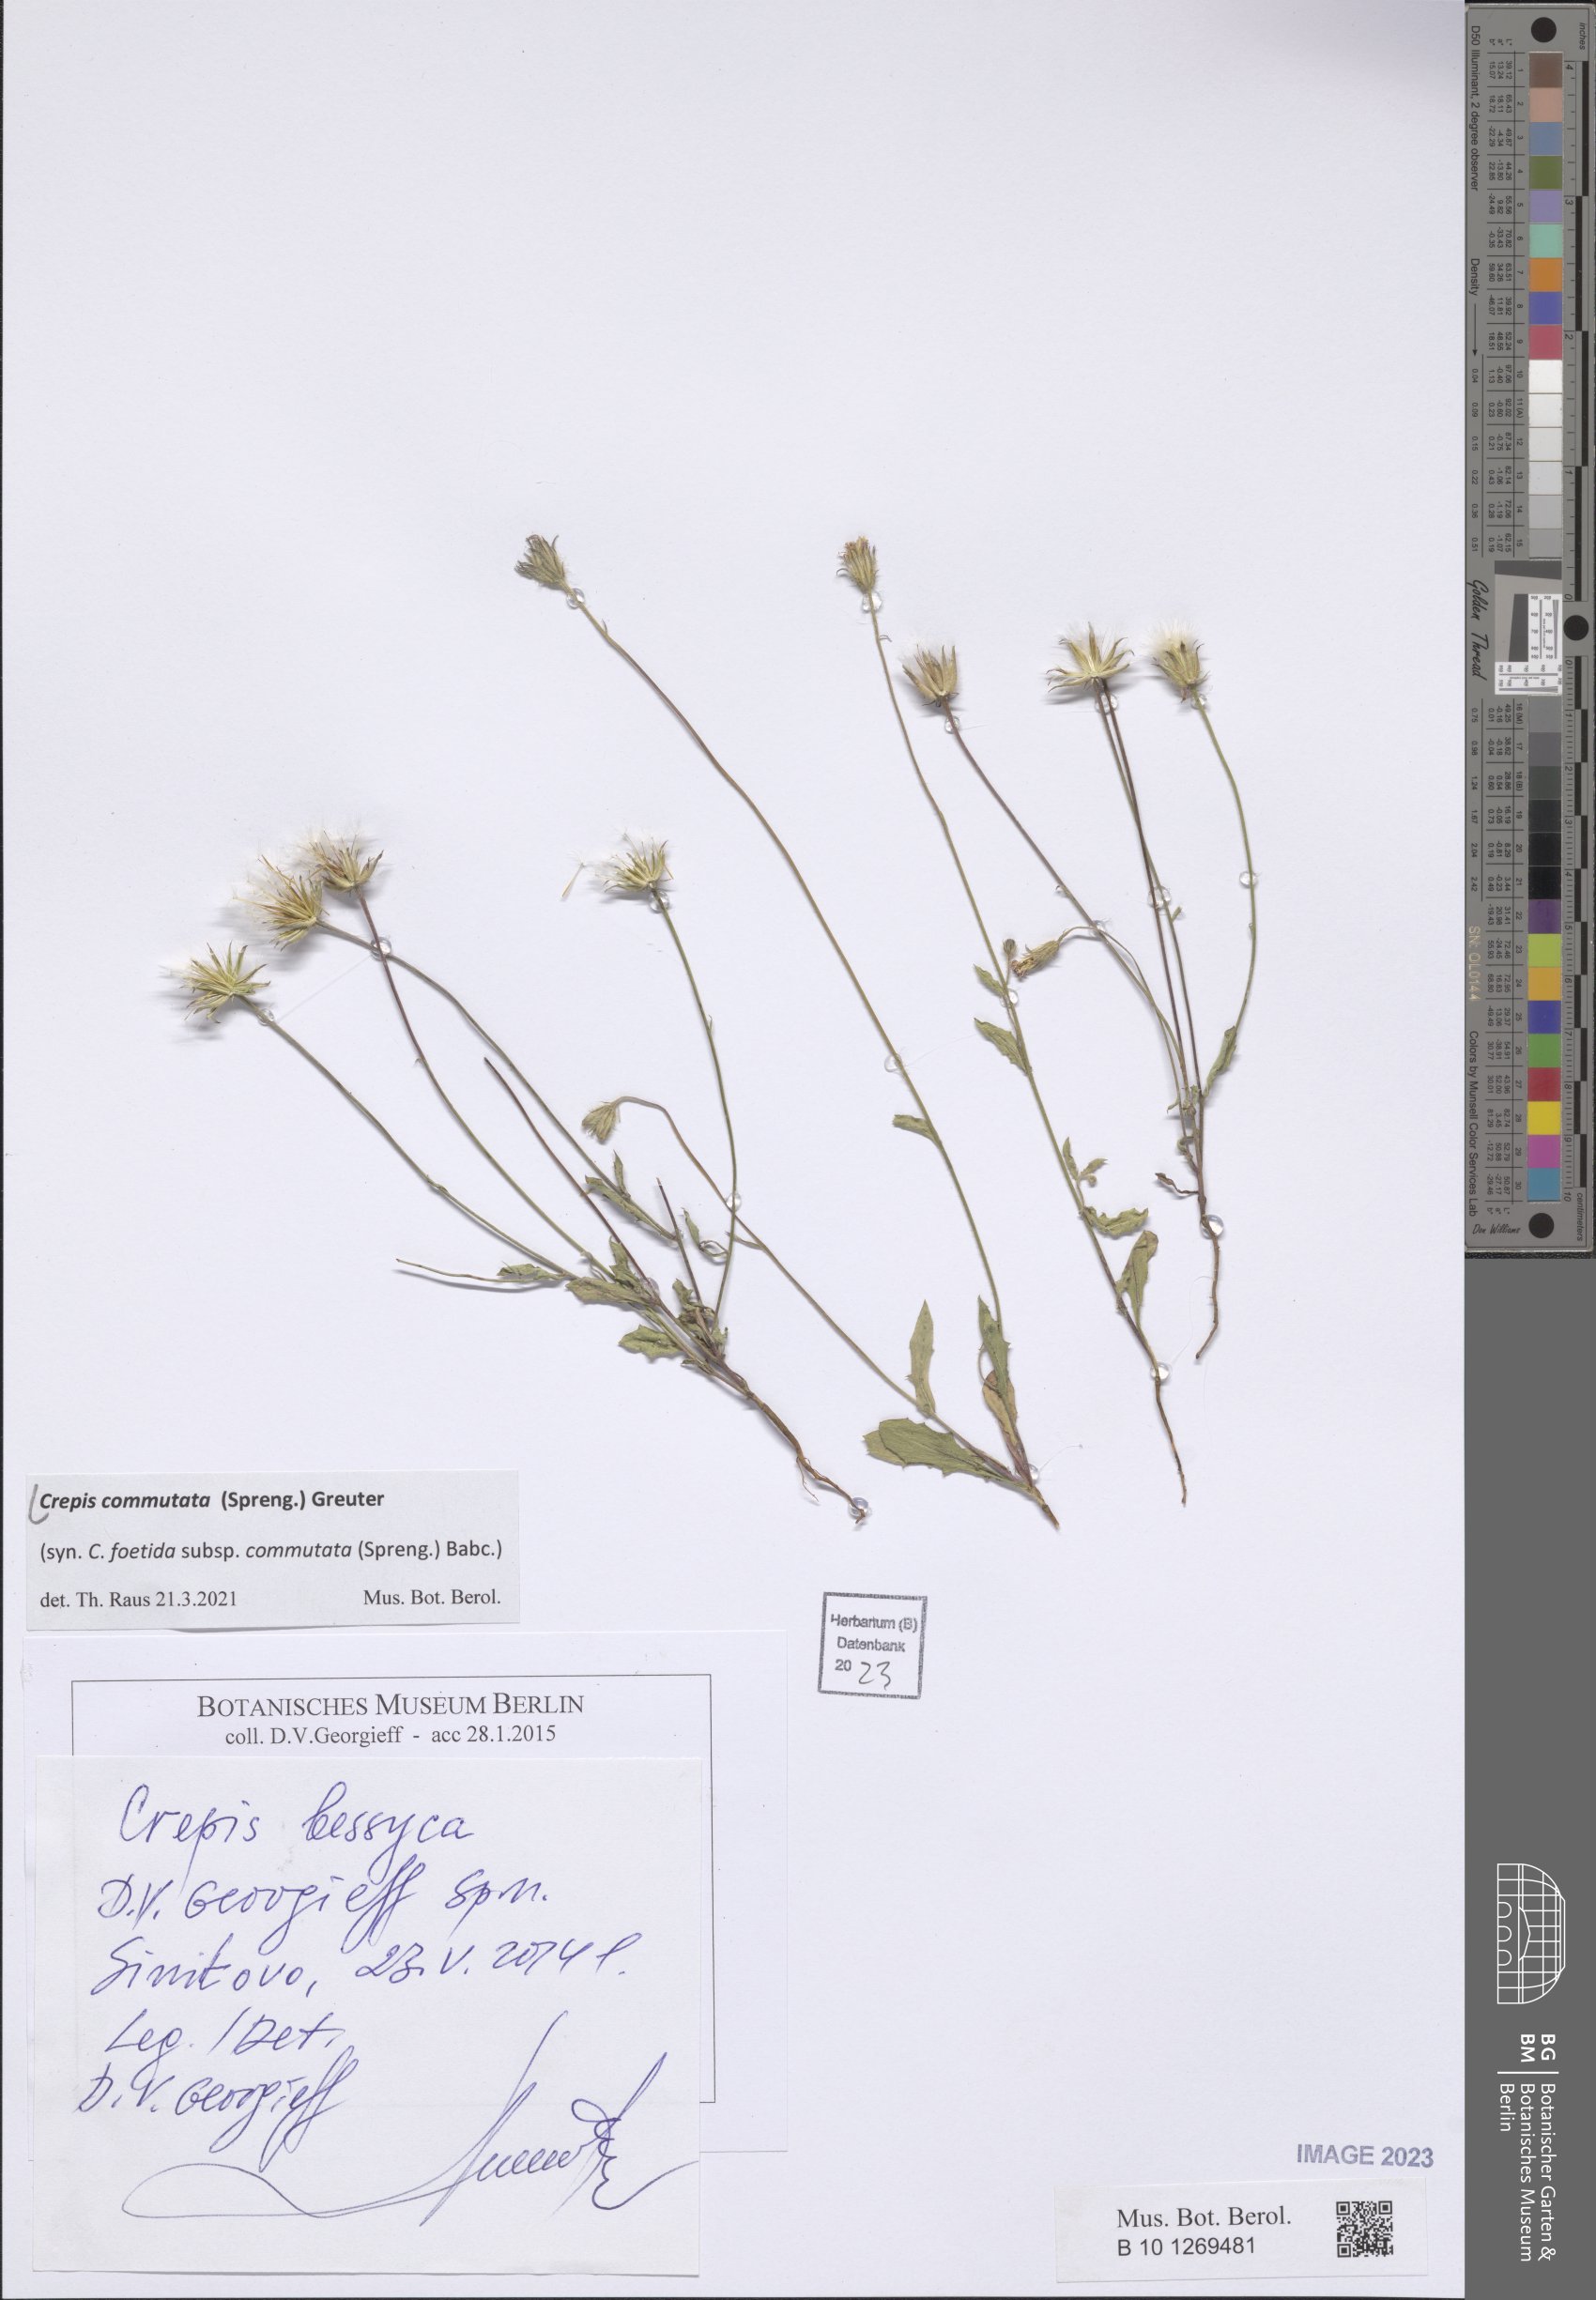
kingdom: Plantae
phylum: Tracheophyta
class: Magnoliopsida
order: Asterales
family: Asteraceae
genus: Crepis
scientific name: Crepis commutata
